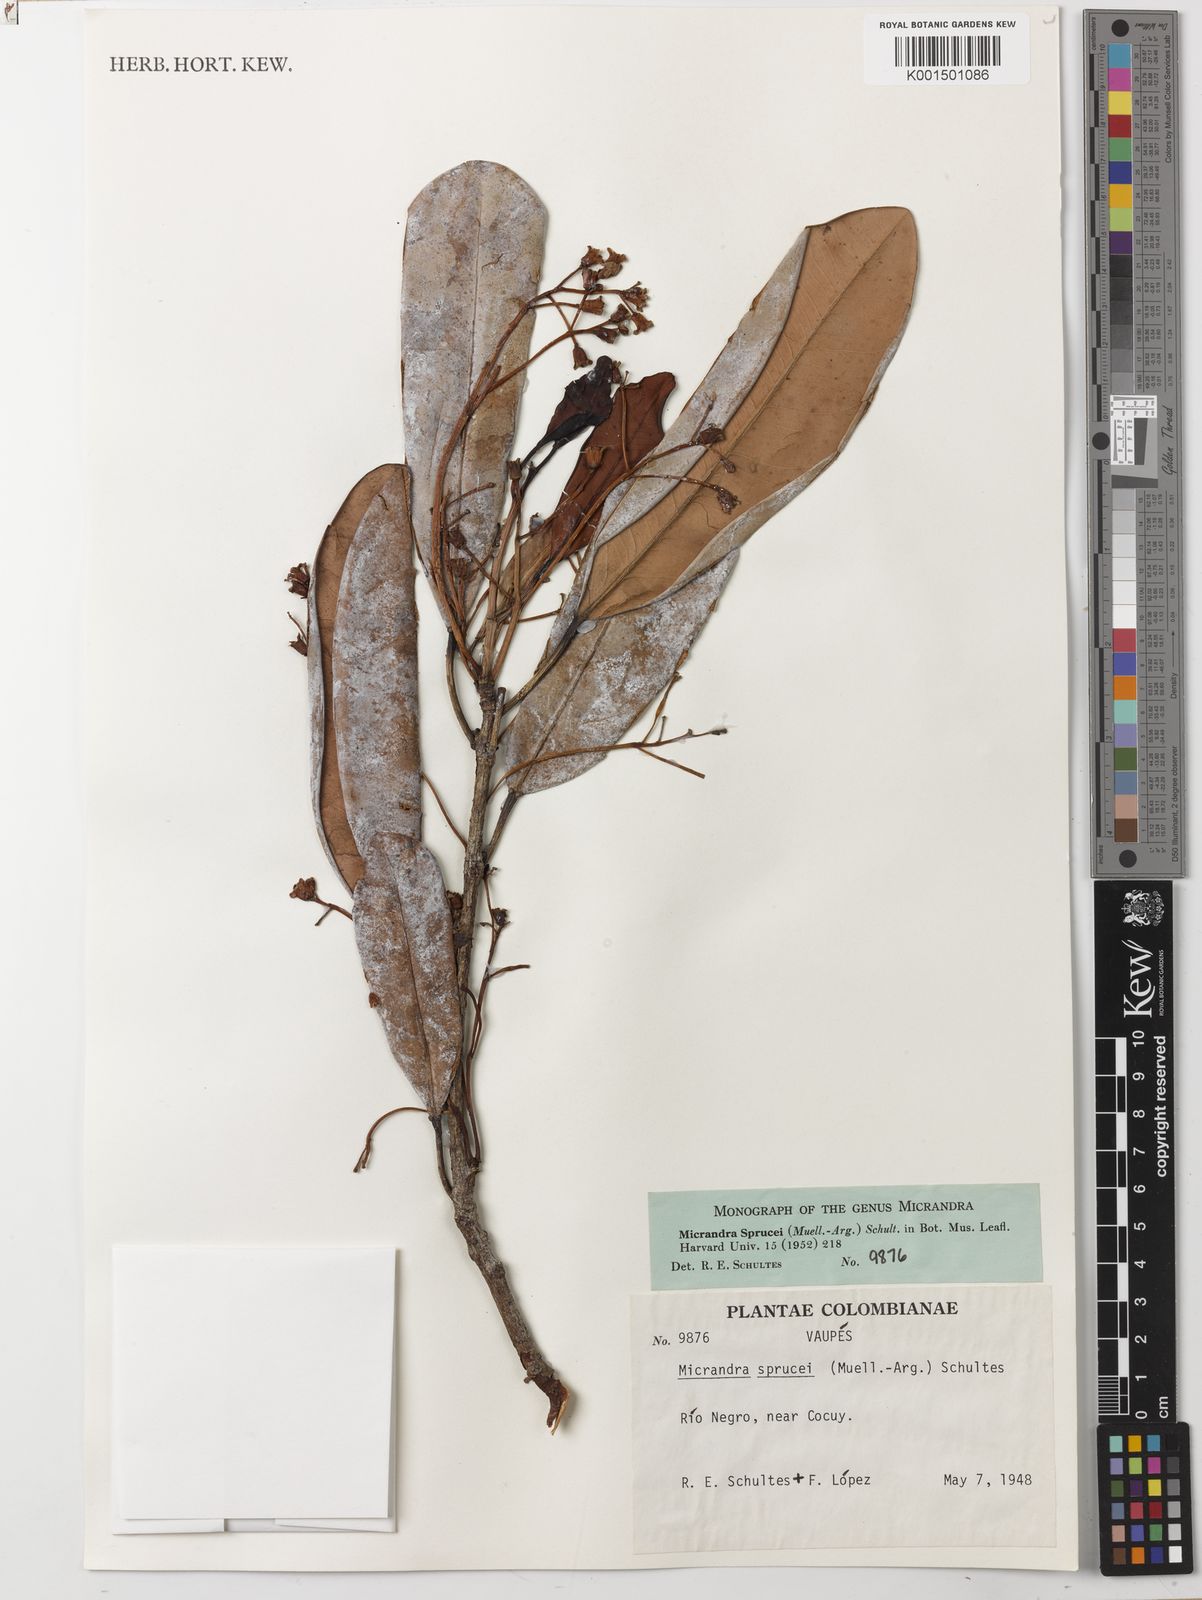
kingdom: Plantae
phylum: Tracheophyta
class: Magnoliopsida
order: Malpighiales
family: Euphorbiaceae
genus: Micrandra
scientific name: Micrandra sprucei
